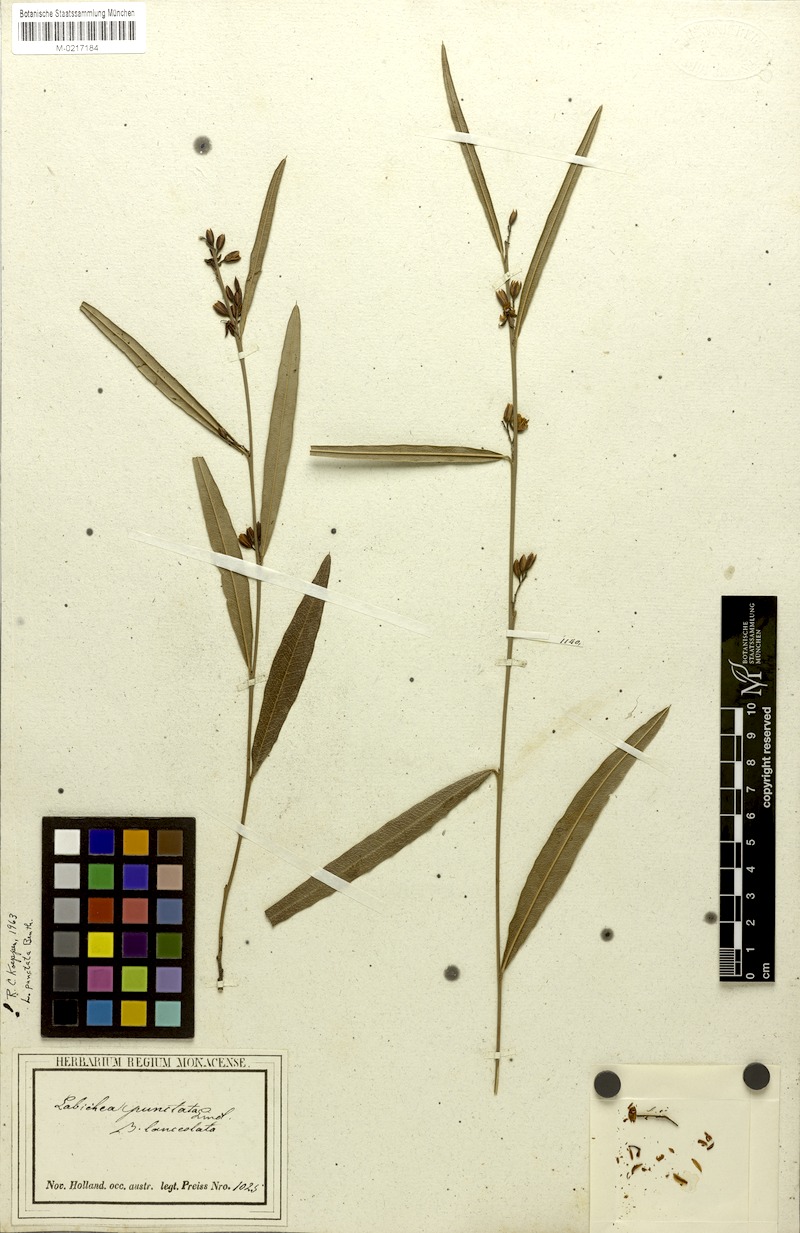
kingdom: Plantae
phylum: Tracheophyta
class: Magnoliopsida
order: Fabales
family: Fabaceae
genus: Labichea
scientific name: Labichea punctata
